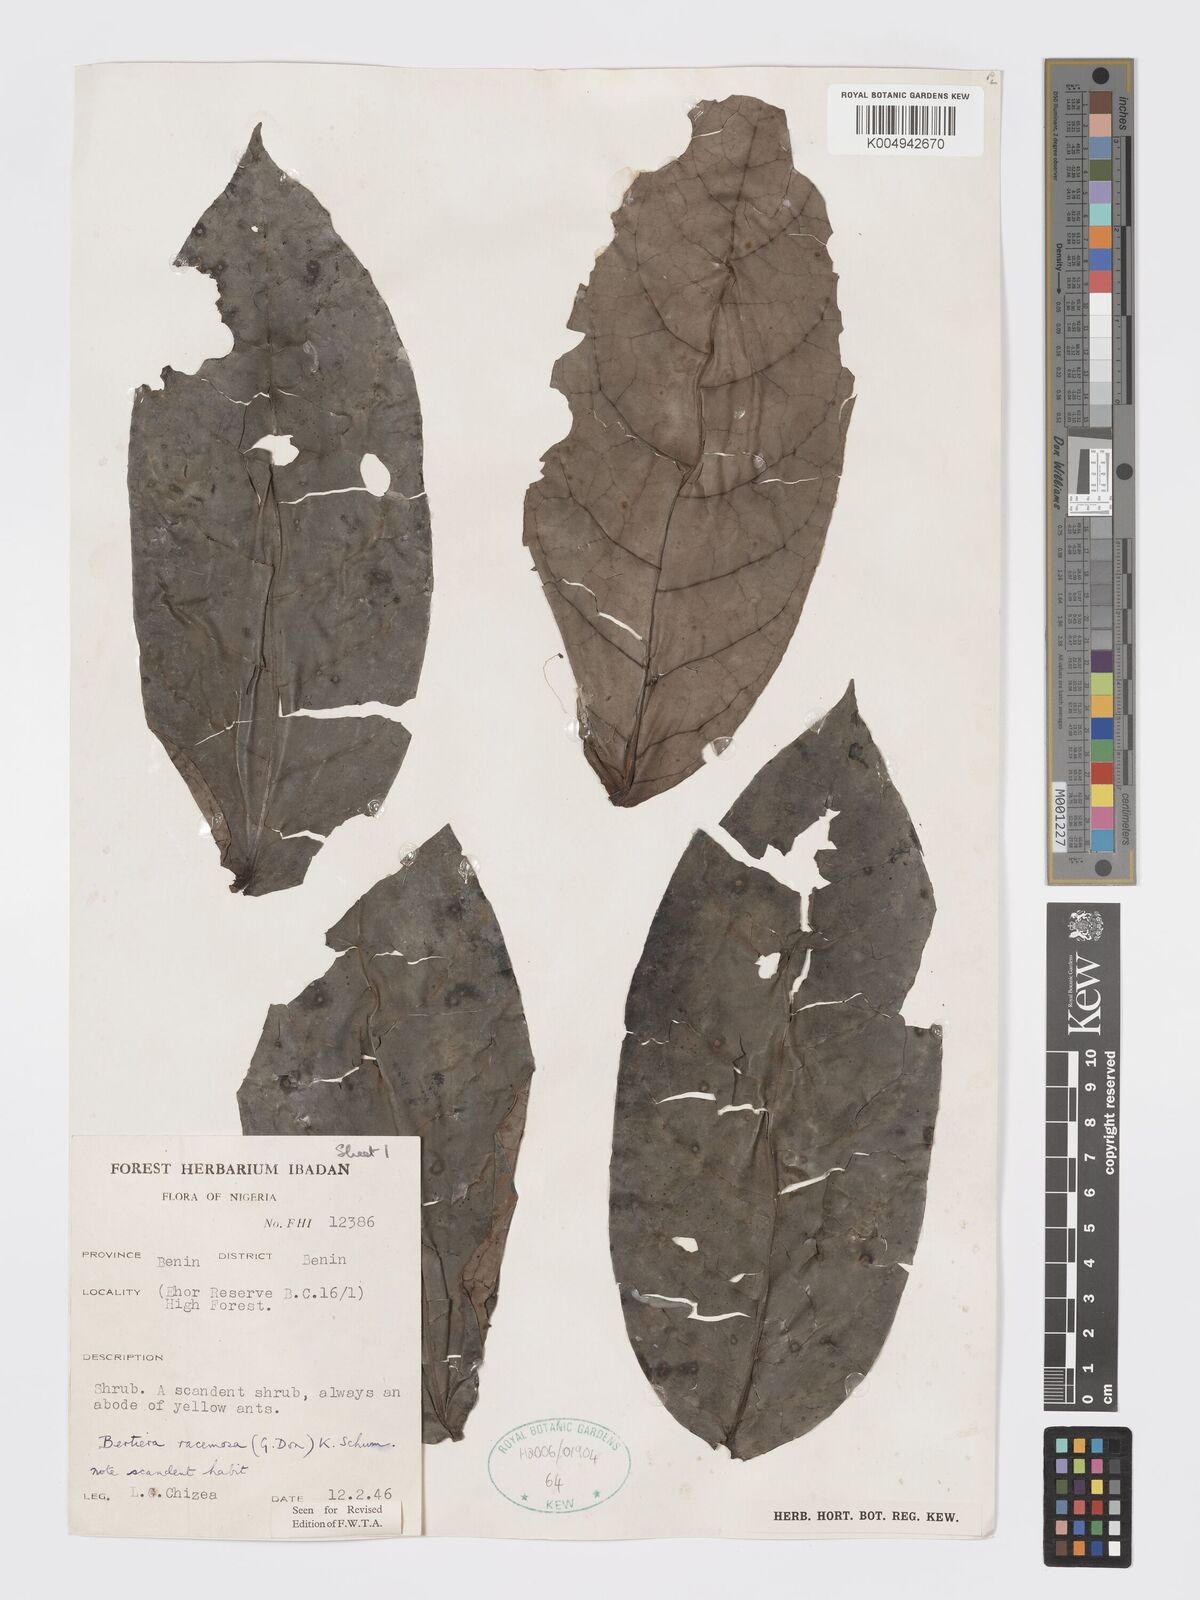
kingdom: Plantae
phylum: Tracheophyta
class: Magnoliopsida
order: Gentianales
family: Rubiaceae
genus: Bertiera
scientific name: Bertiera racemosa
